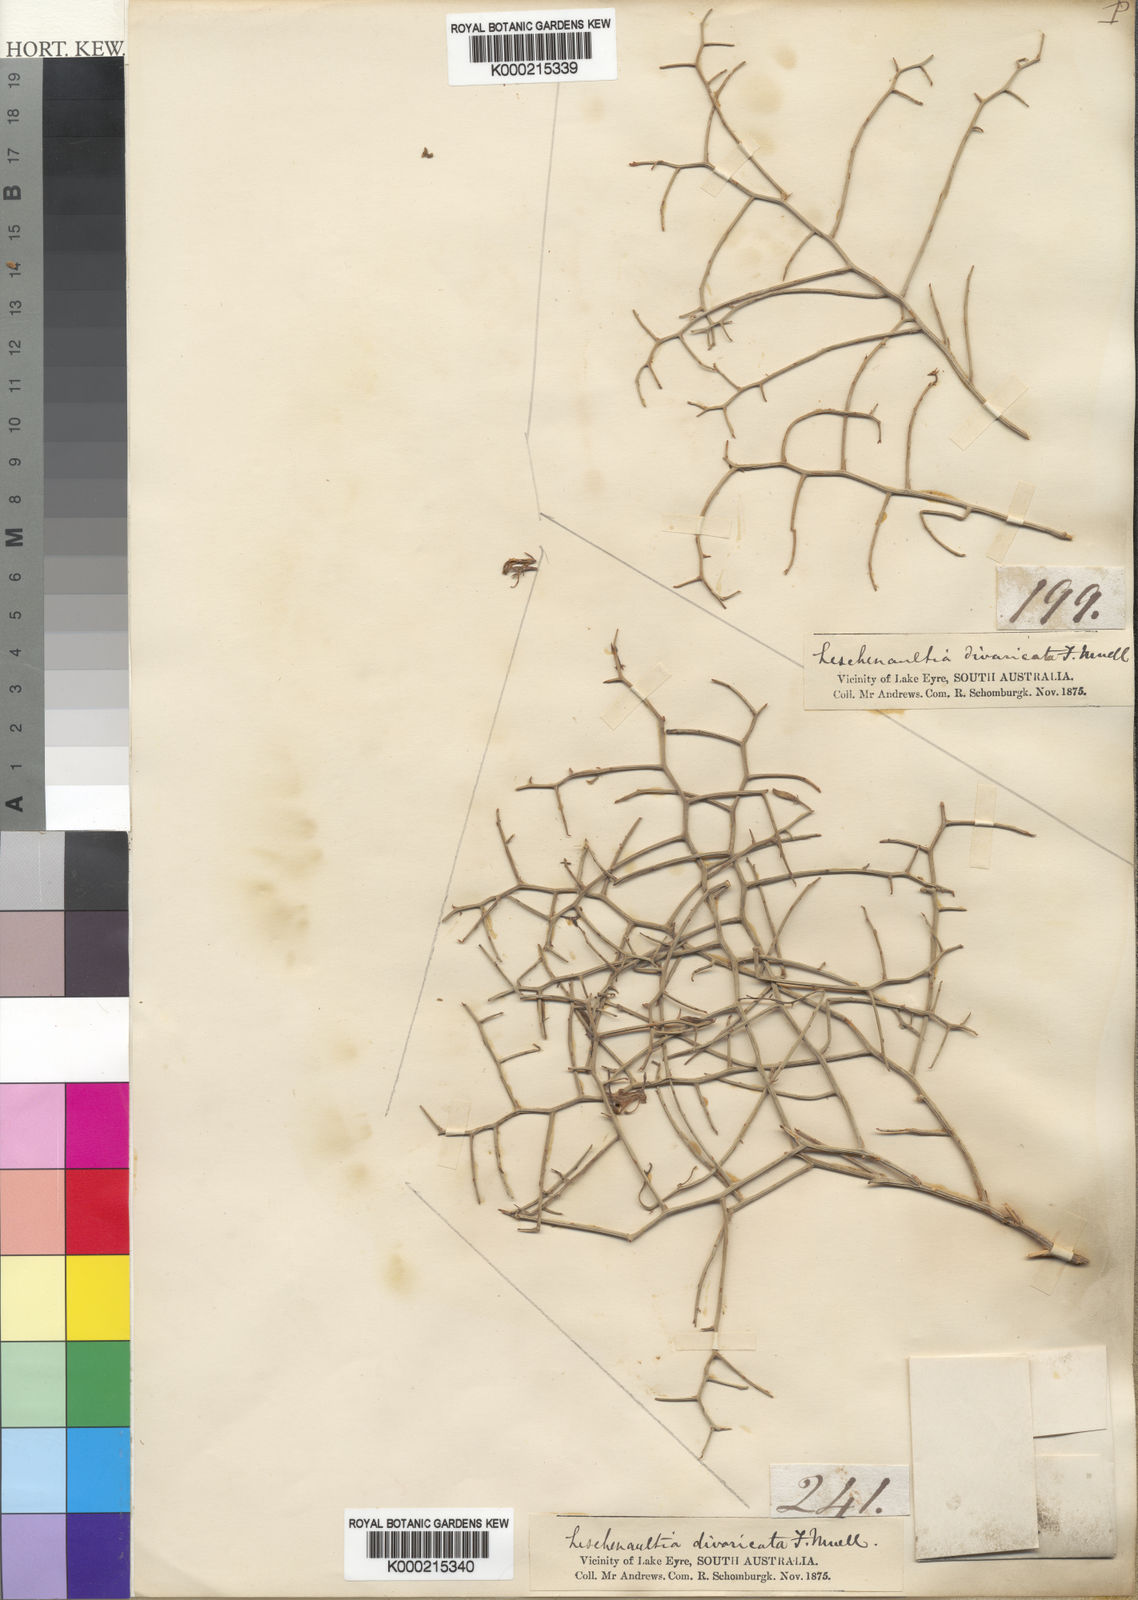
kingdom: Plantae
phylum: Tracheophyta
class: Magnoliopsida
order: Asterales
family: Goodeniaceae
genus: Leschenaultia
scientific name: Leschenaultia divaricata
